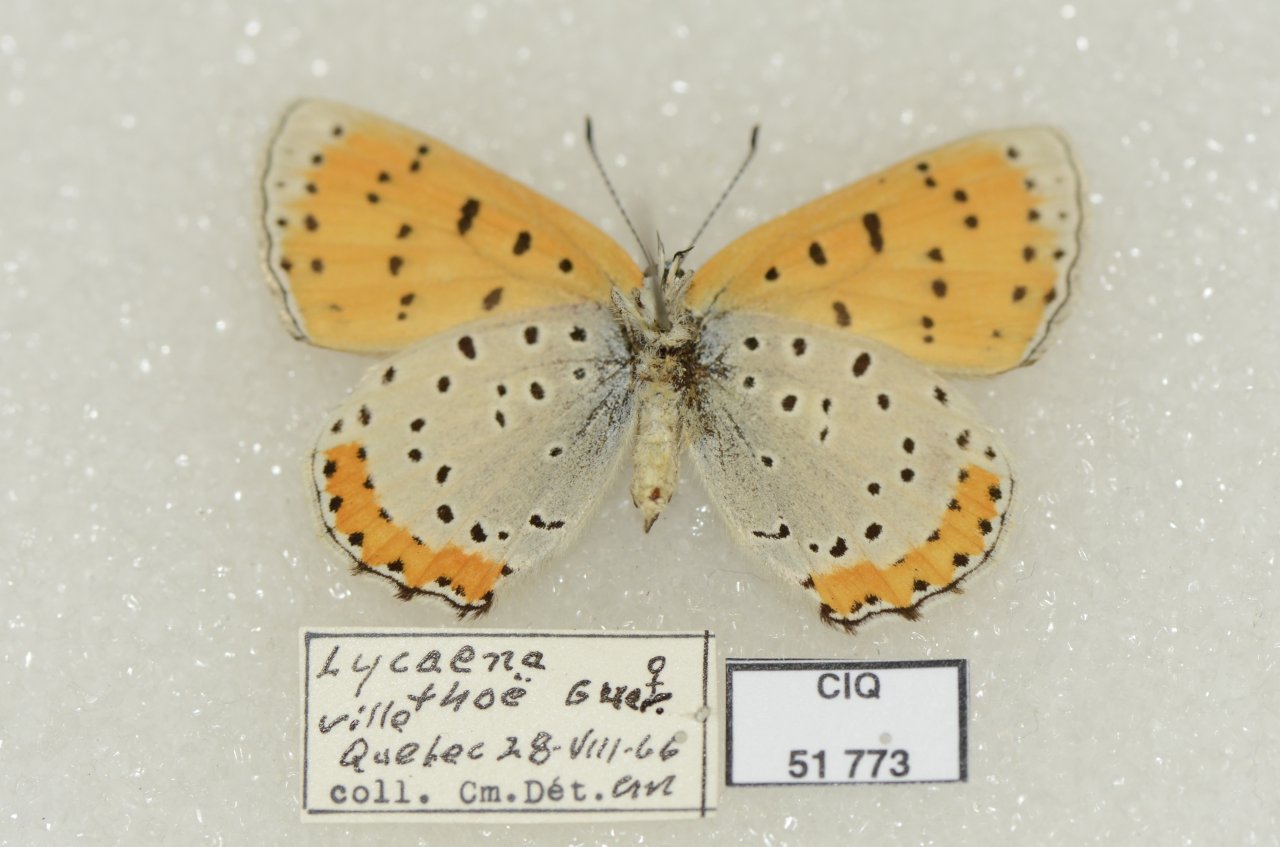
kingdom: Animalia
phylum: Arthropoda
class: Insecta
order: Lepidoptera
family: Sesiidae
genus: Sesia
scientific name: Sesia Lycaena hyllus
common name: Bronze Copper
